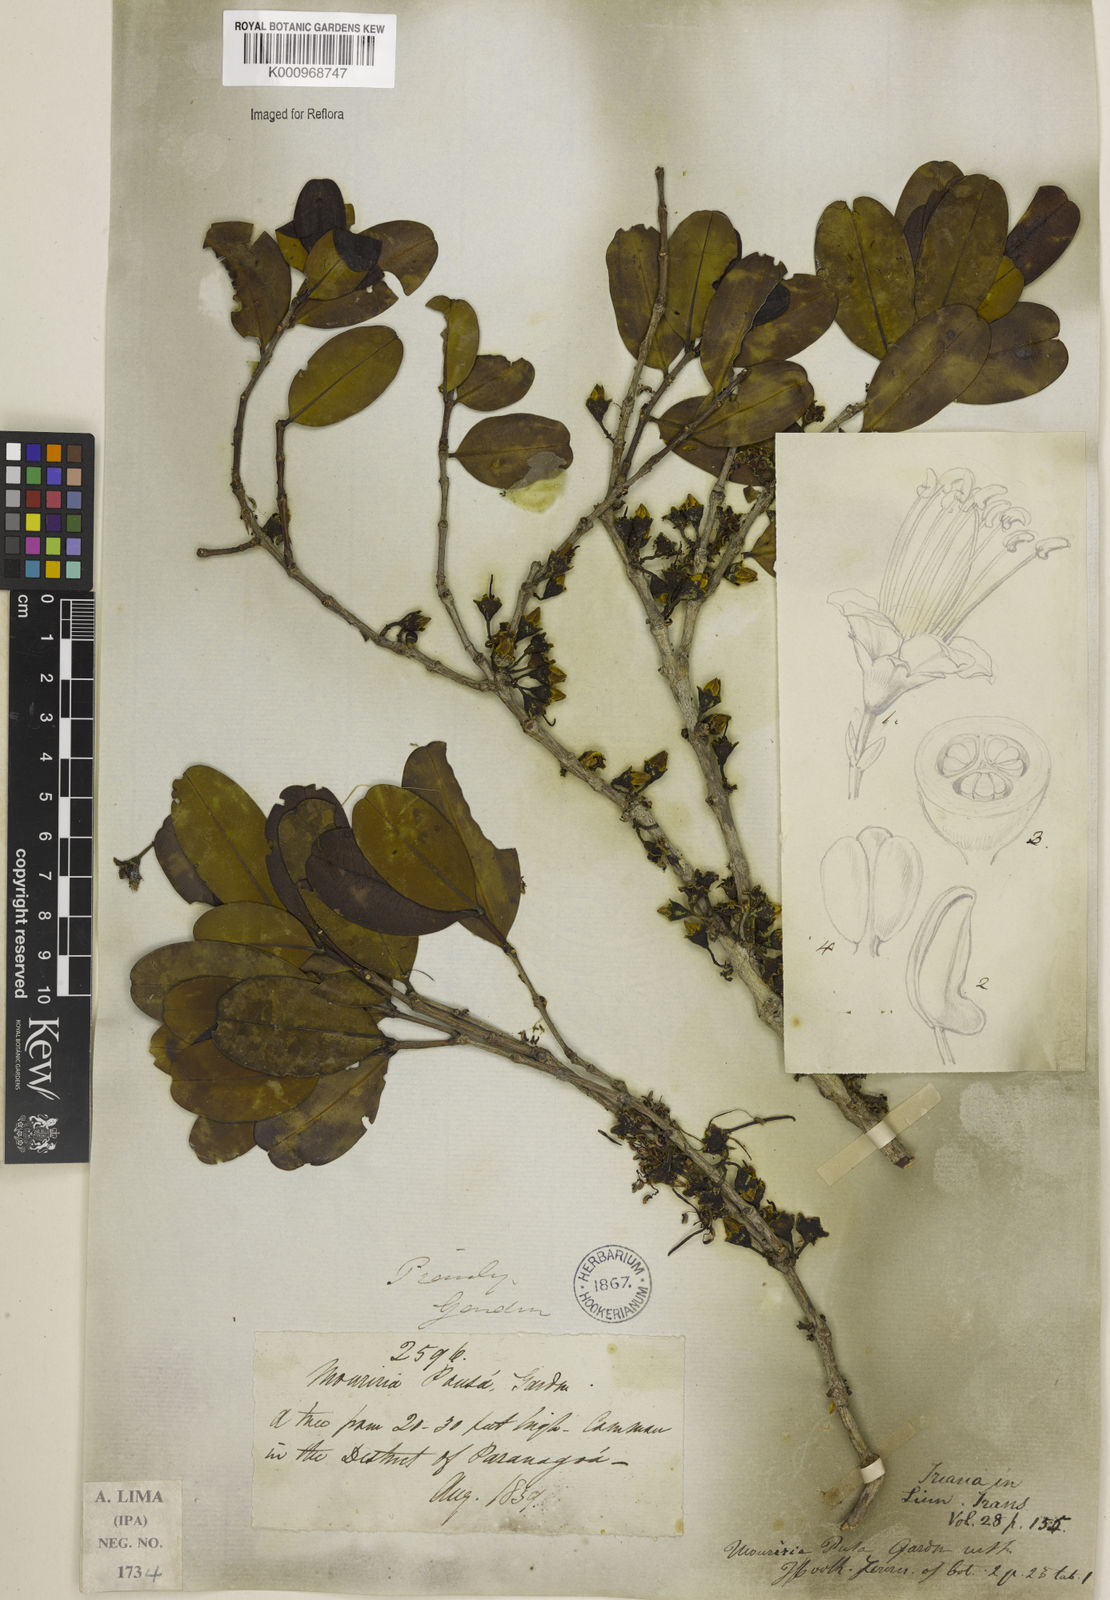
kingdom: Plantae
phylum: Tracheophyta
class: Magnoliopsida
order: Myrtales
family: Melastomataceae
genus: Mouriri
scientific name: Mouriri pusa
